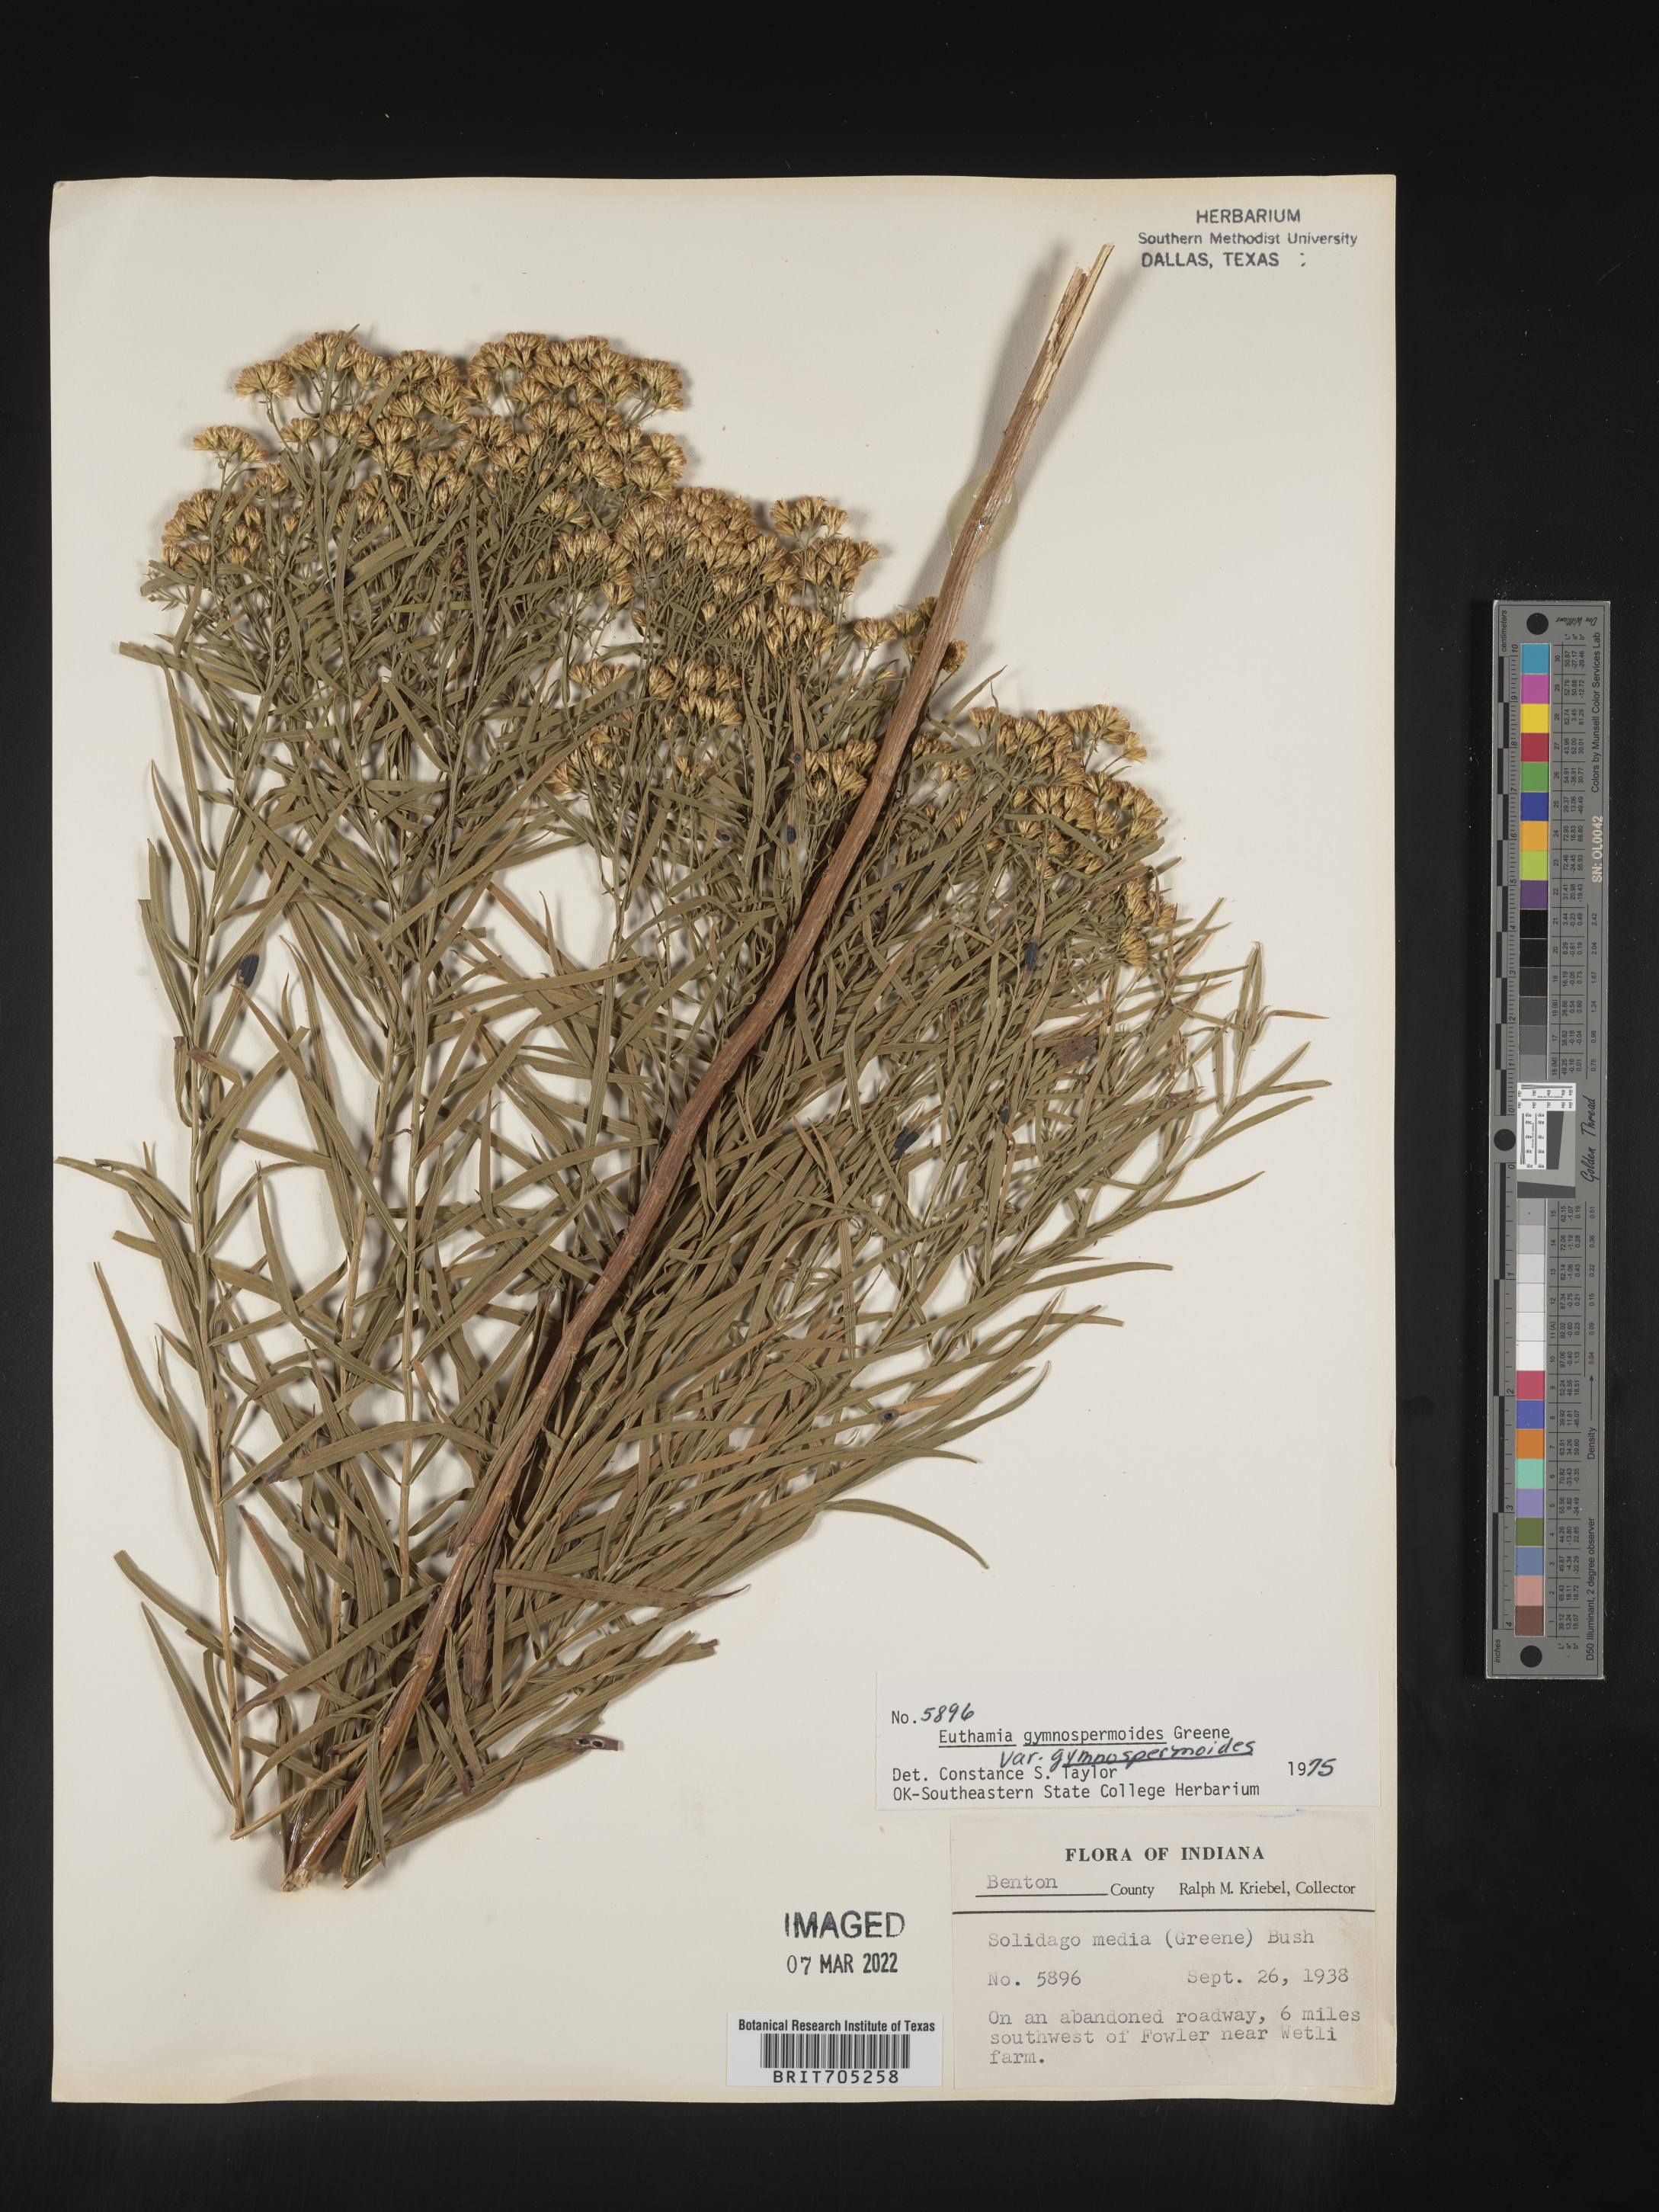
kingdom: Plantae
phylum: Tracheophyta
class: Magnoliopsida
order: Asterales
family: Asteraceae
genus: Euthamia
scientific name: Euthamia gymnospermoides
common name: Great plains goldentop
